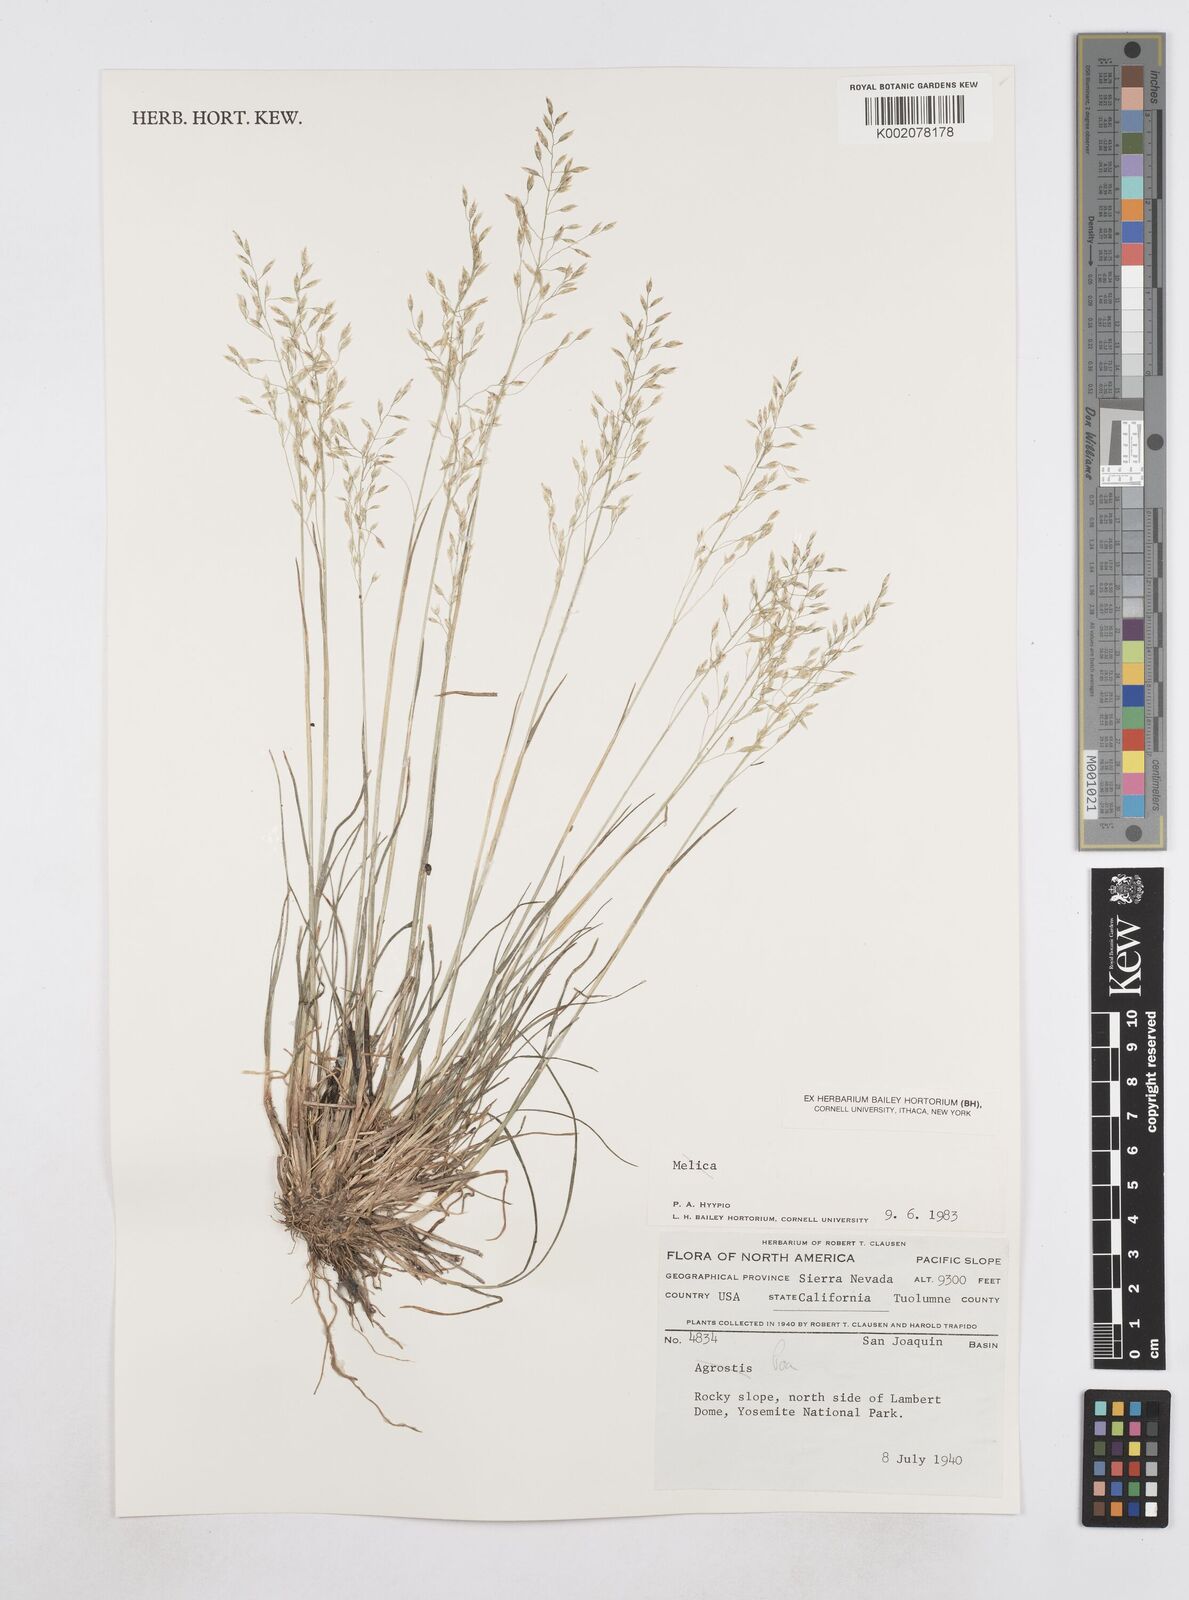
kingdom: Plantae
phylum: Tracheophyta
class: Liliopsida
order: Poales
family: Poaceae
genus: Poa
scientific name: Poa
